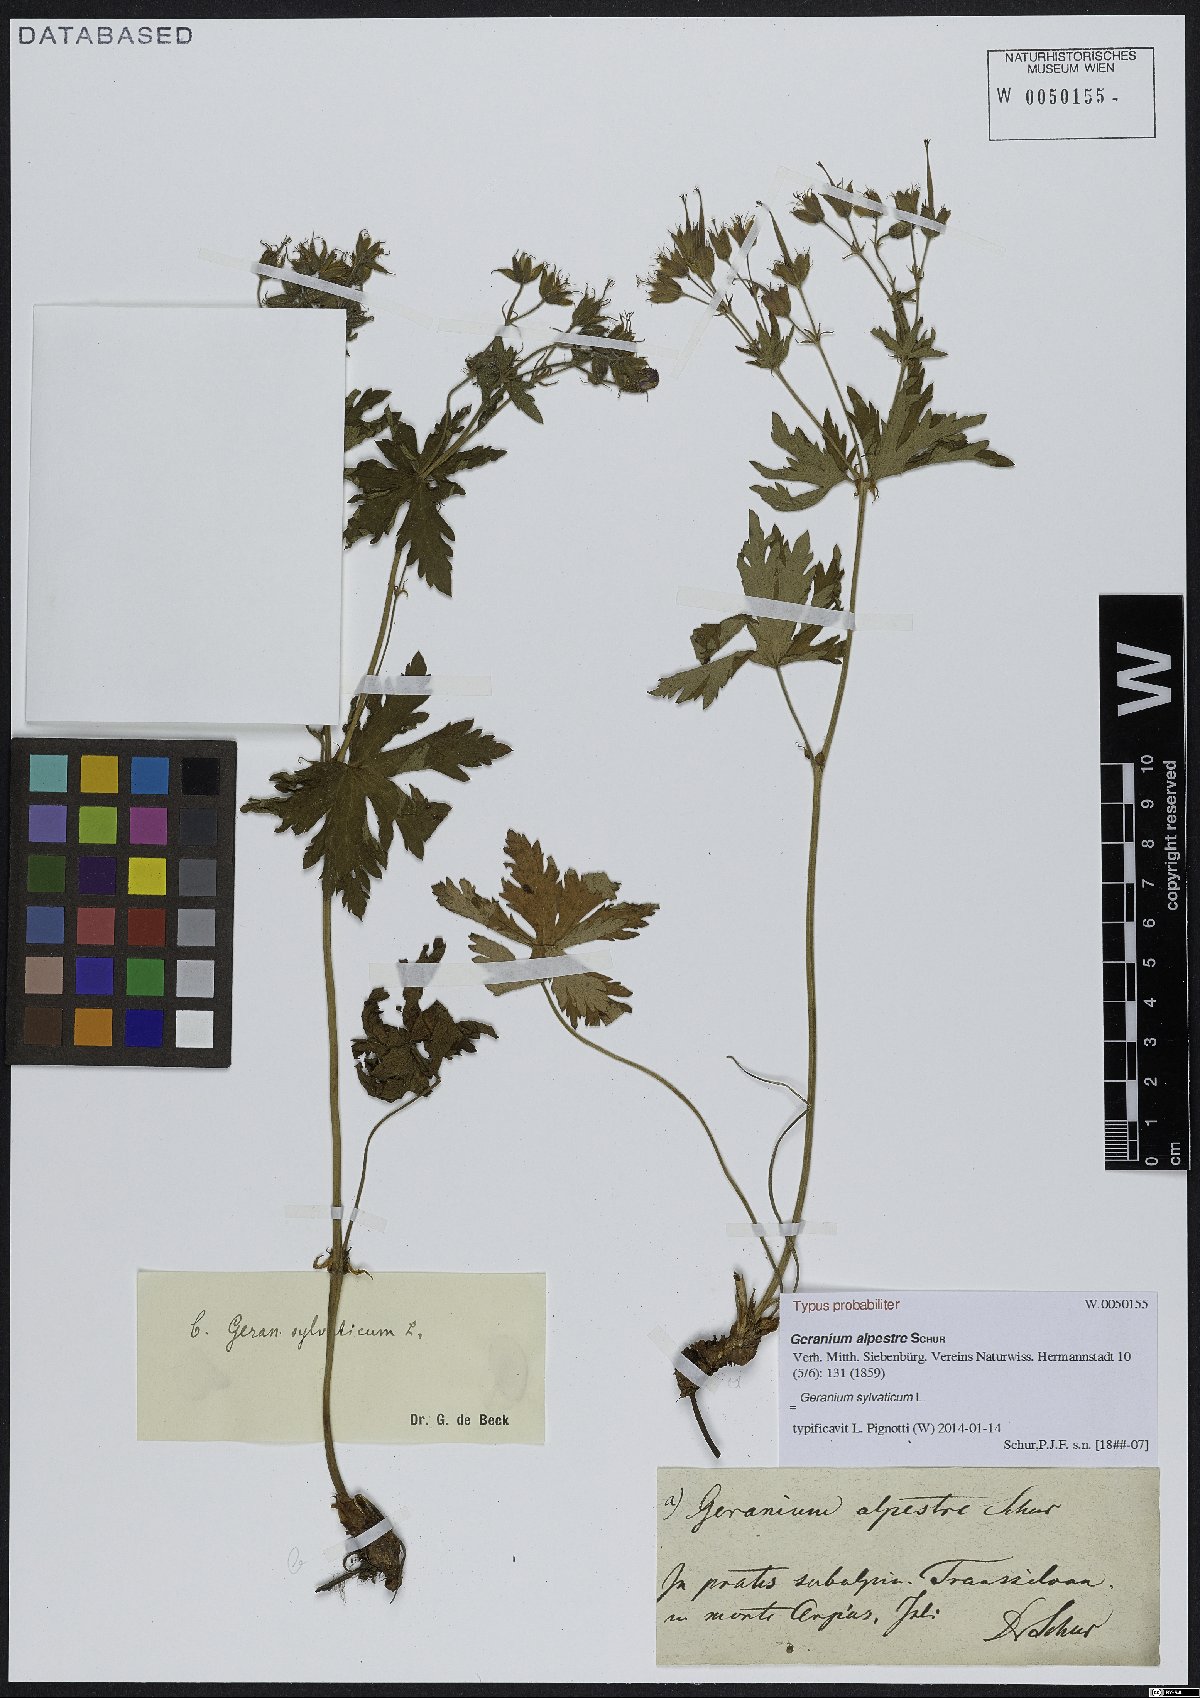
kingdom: Plantae
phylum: Tracheophyta
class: Magnoliopsida
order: Geraniales
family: Geraniaceae
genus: Geranium
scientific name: Geranium sylvaticum
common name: Wood crane's-bill
